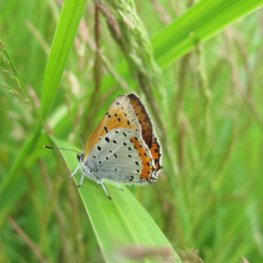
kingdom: Animalia
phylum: Arthropoda
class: Insecta
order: Lepidoptera
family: Sesiidae
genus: Sesia
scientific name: Sesia Lycaena hyllus
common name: Bronze Copper
